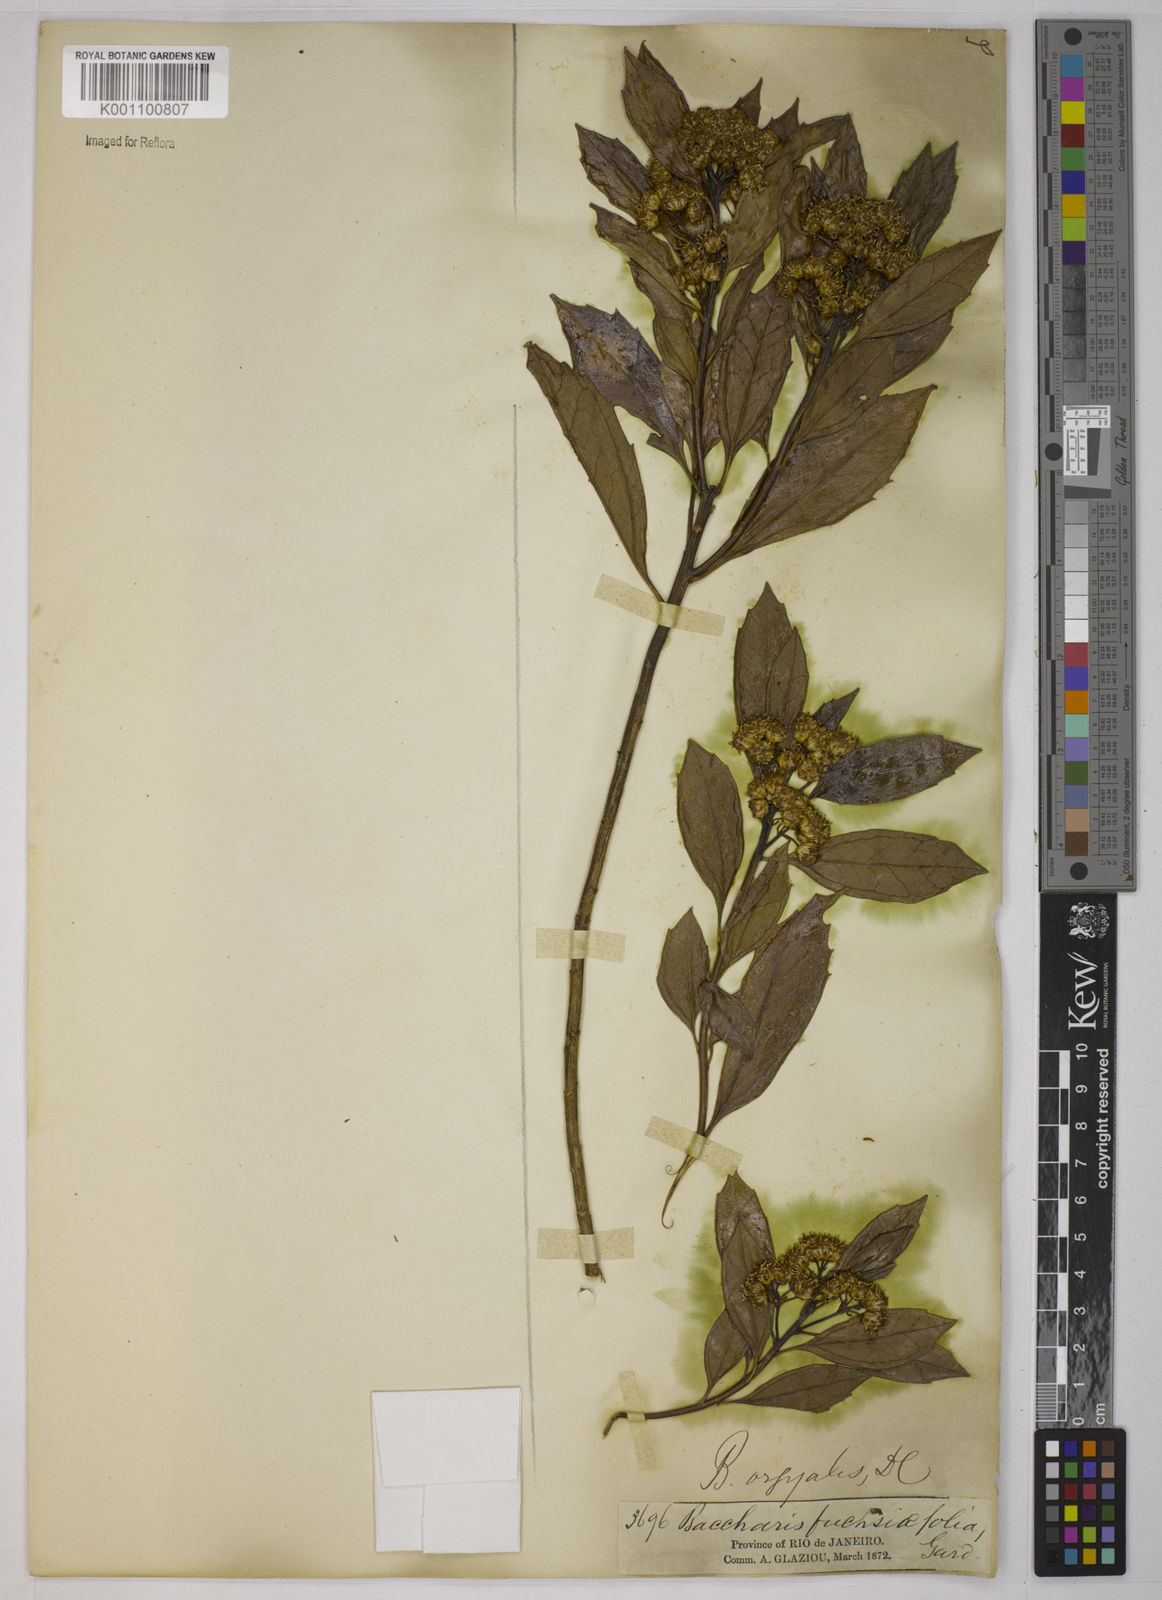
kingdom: Plantae
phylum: Tracheophyta
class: Magnoliopsida
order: Asterales
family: Asteraceae
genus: Baccharis
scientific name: Baccharis dentata
